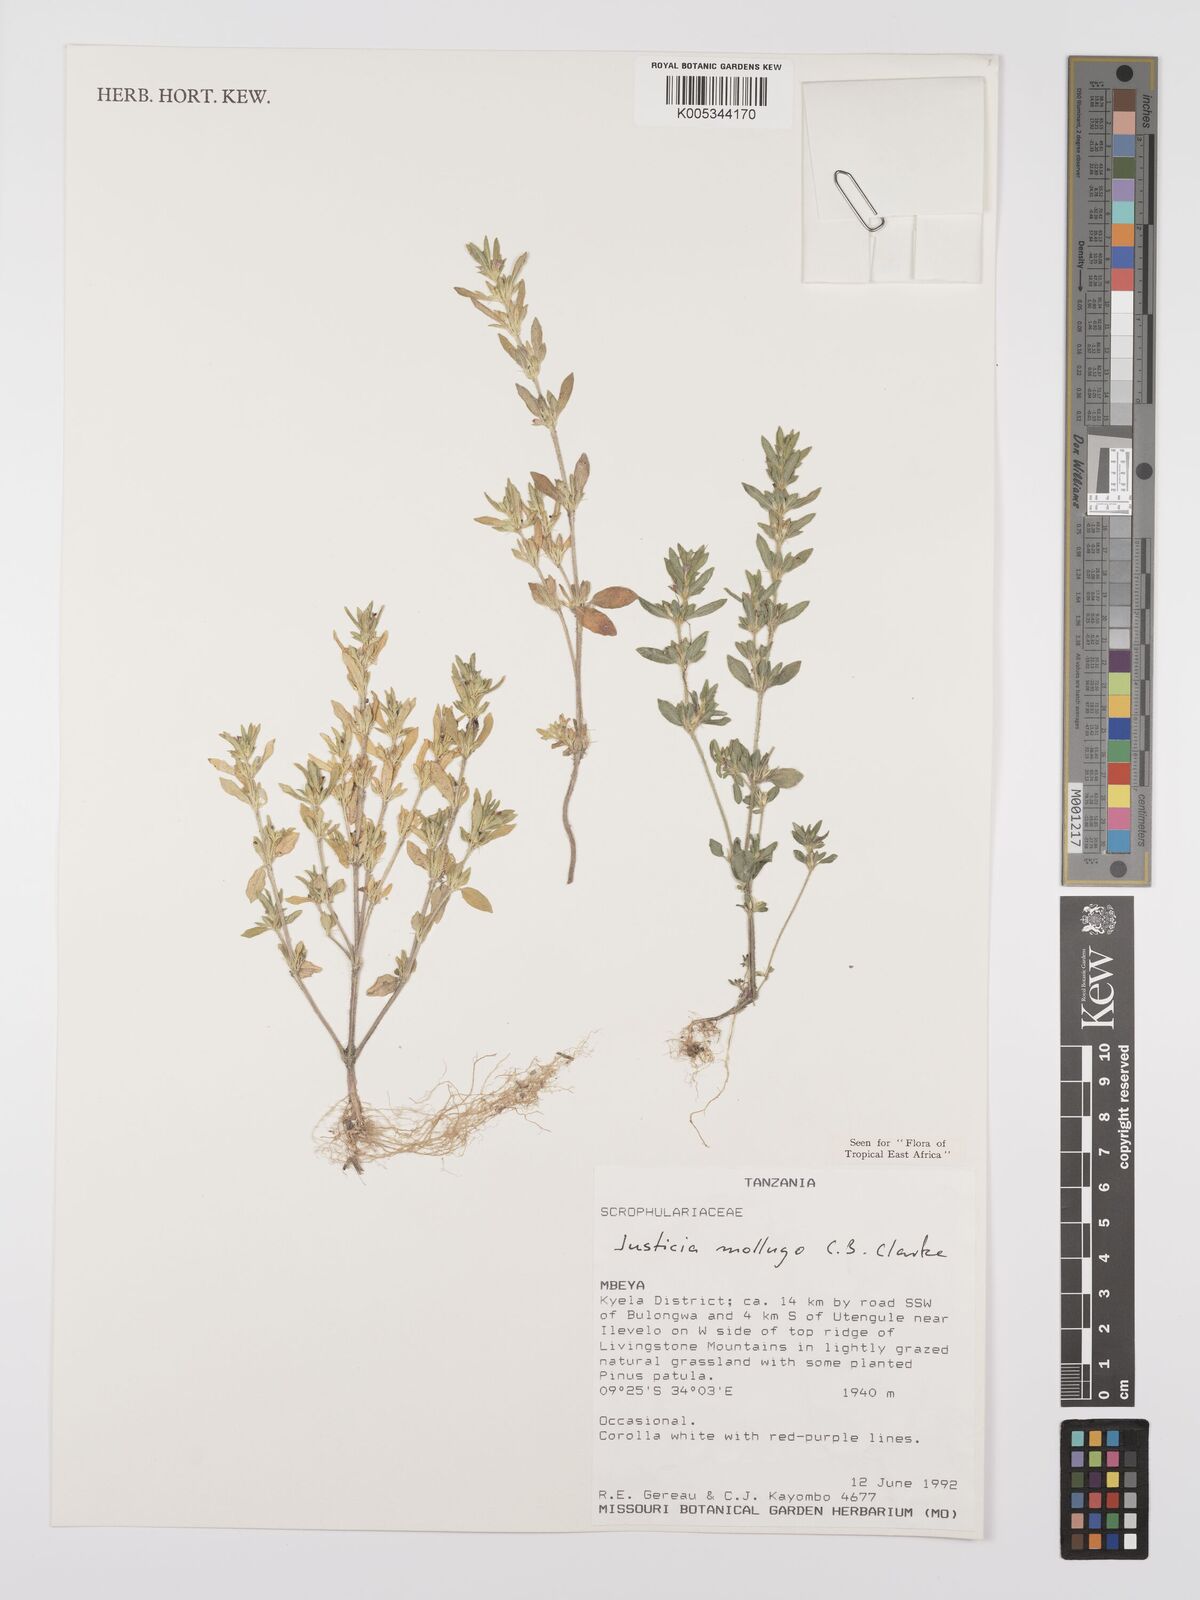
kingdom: Plantae
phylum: Tracheophyta
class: Magnoliopsida
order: Lamiales
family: Acanthaceae
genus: Justicia
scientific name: Justicia mollugo
